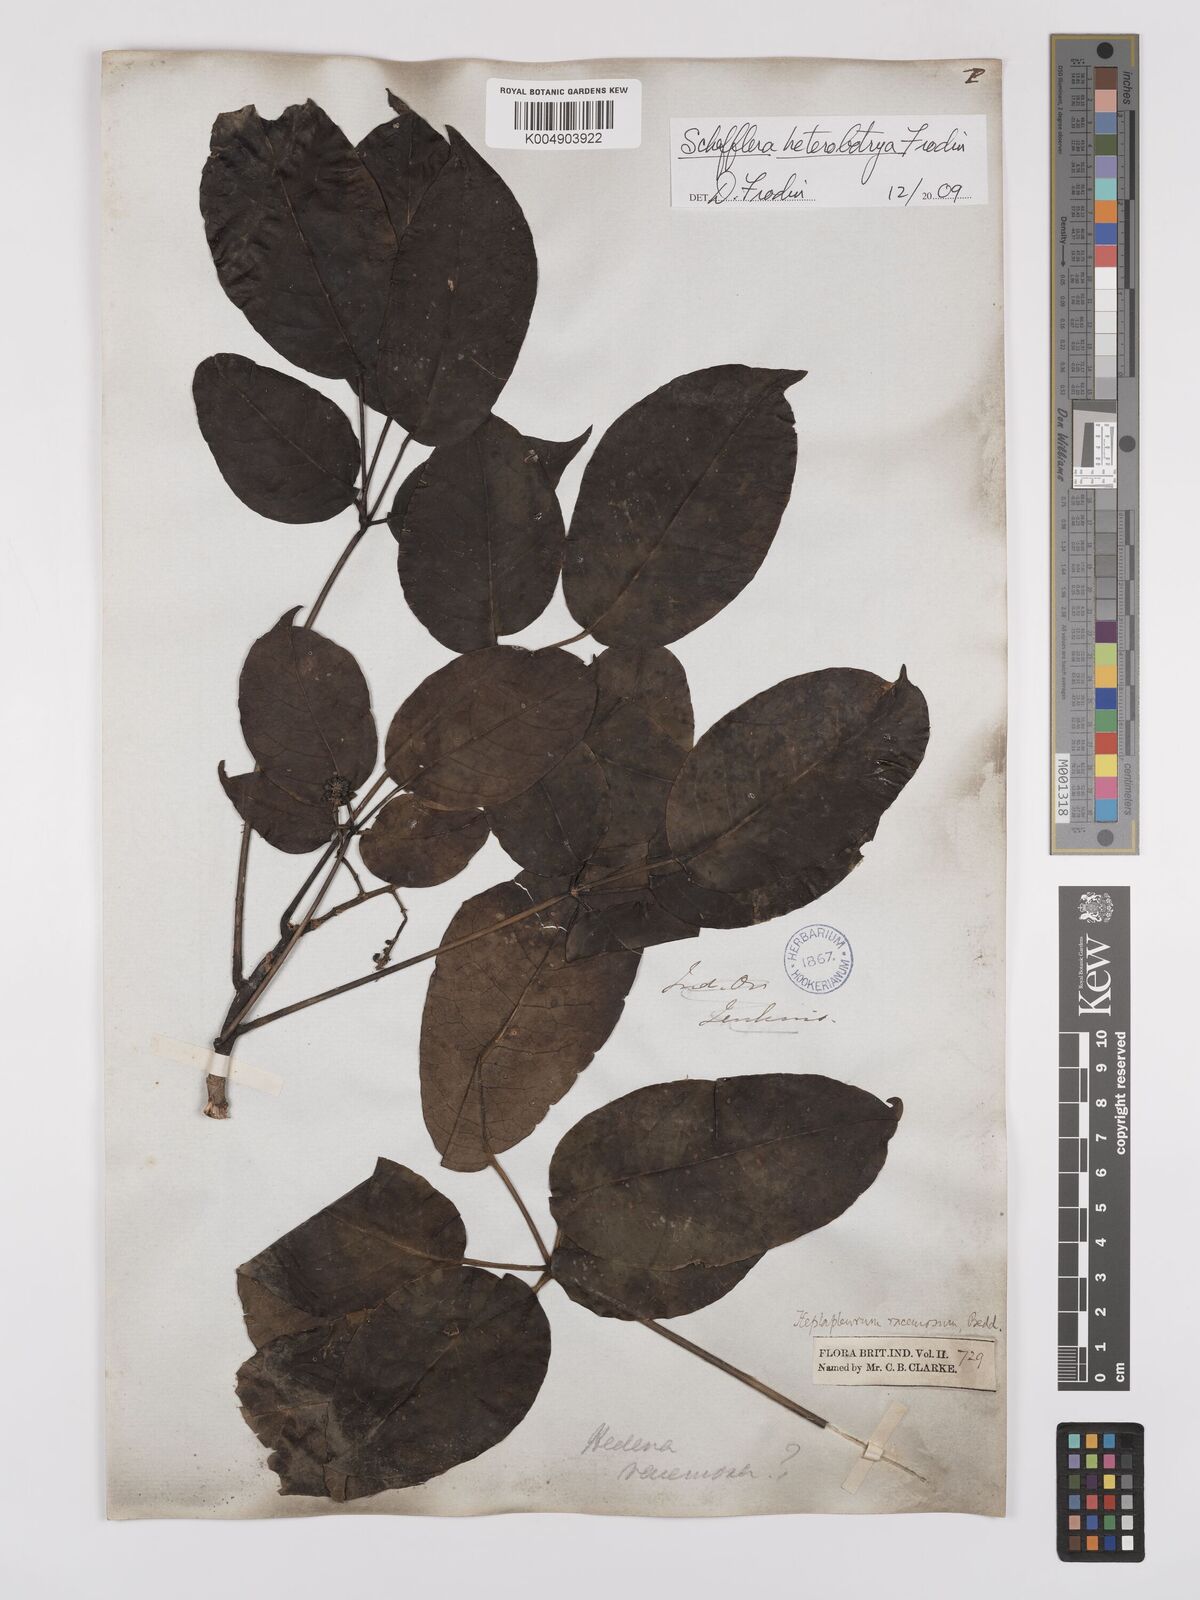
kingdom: Plantae
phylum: Tracheophyta
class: Magnoliopsida
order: Apiales
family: Araliaceae
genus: Heptapleurum
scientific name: Heptapleurum
